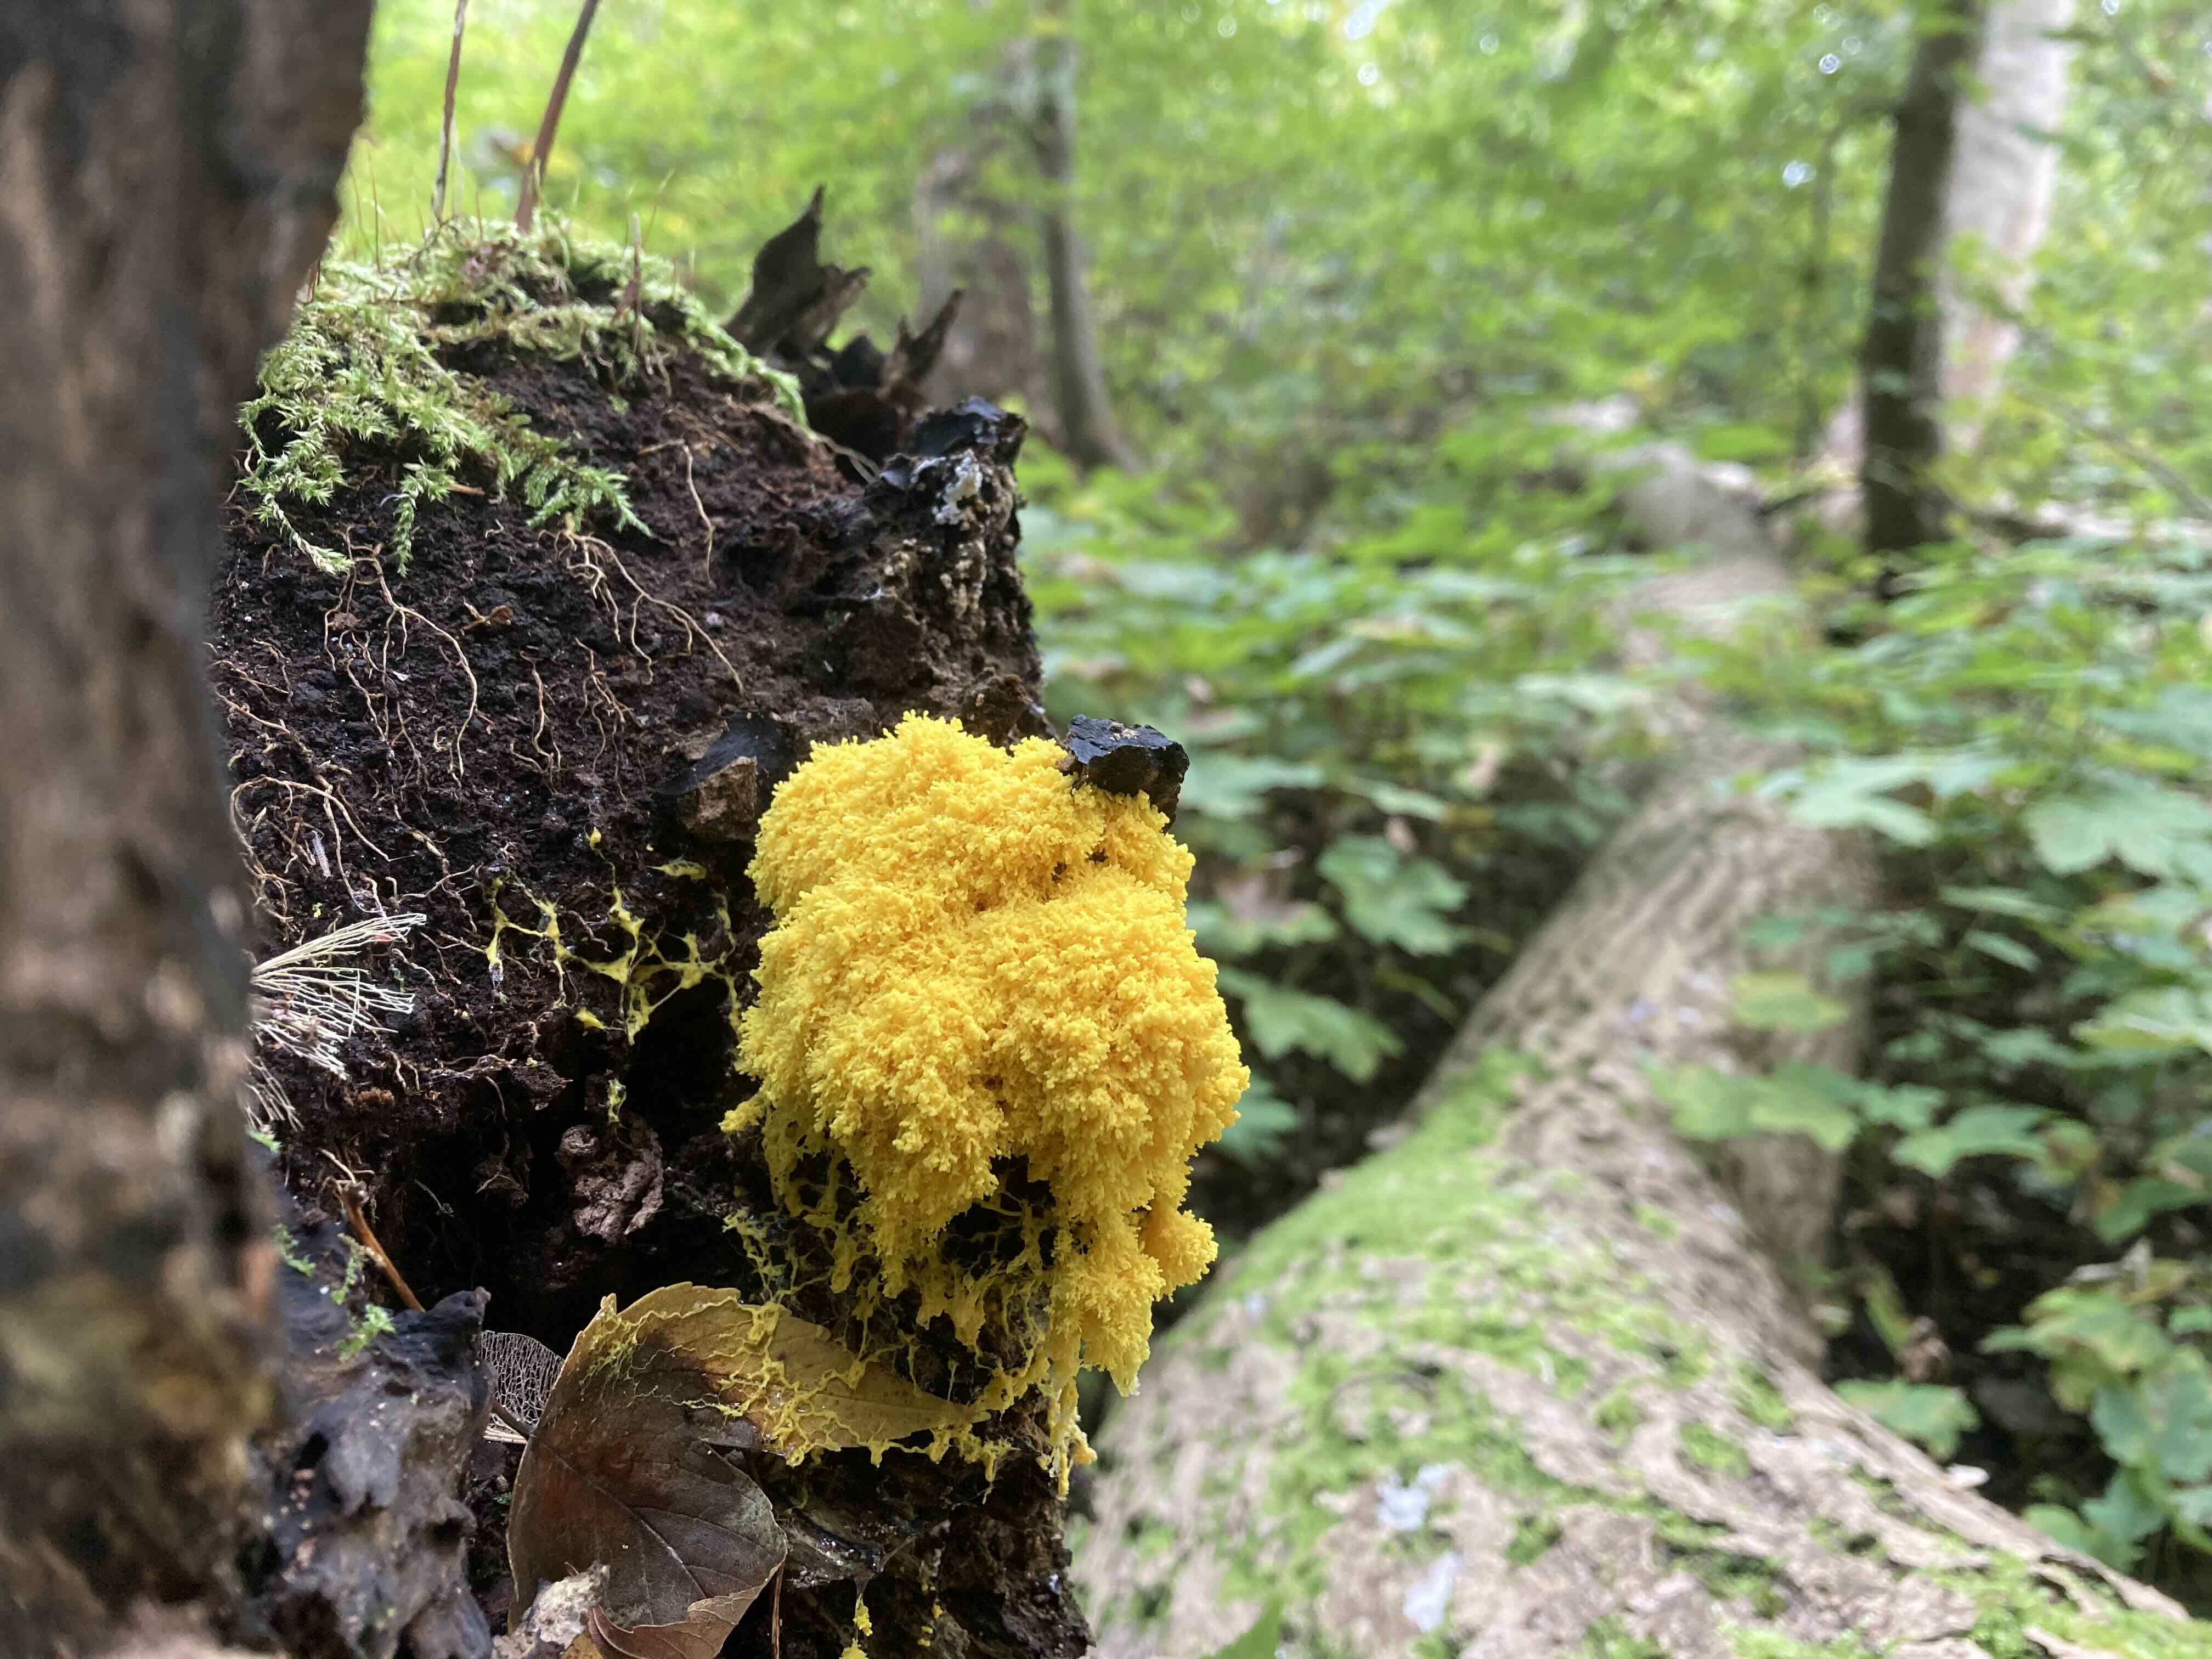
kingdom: Protozoa
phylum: Mycetozoa
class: Myxomycetes
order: Physarales
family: Physaraceae
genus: Fuligo
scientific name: Fuligo septica
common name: gul troldsmør
